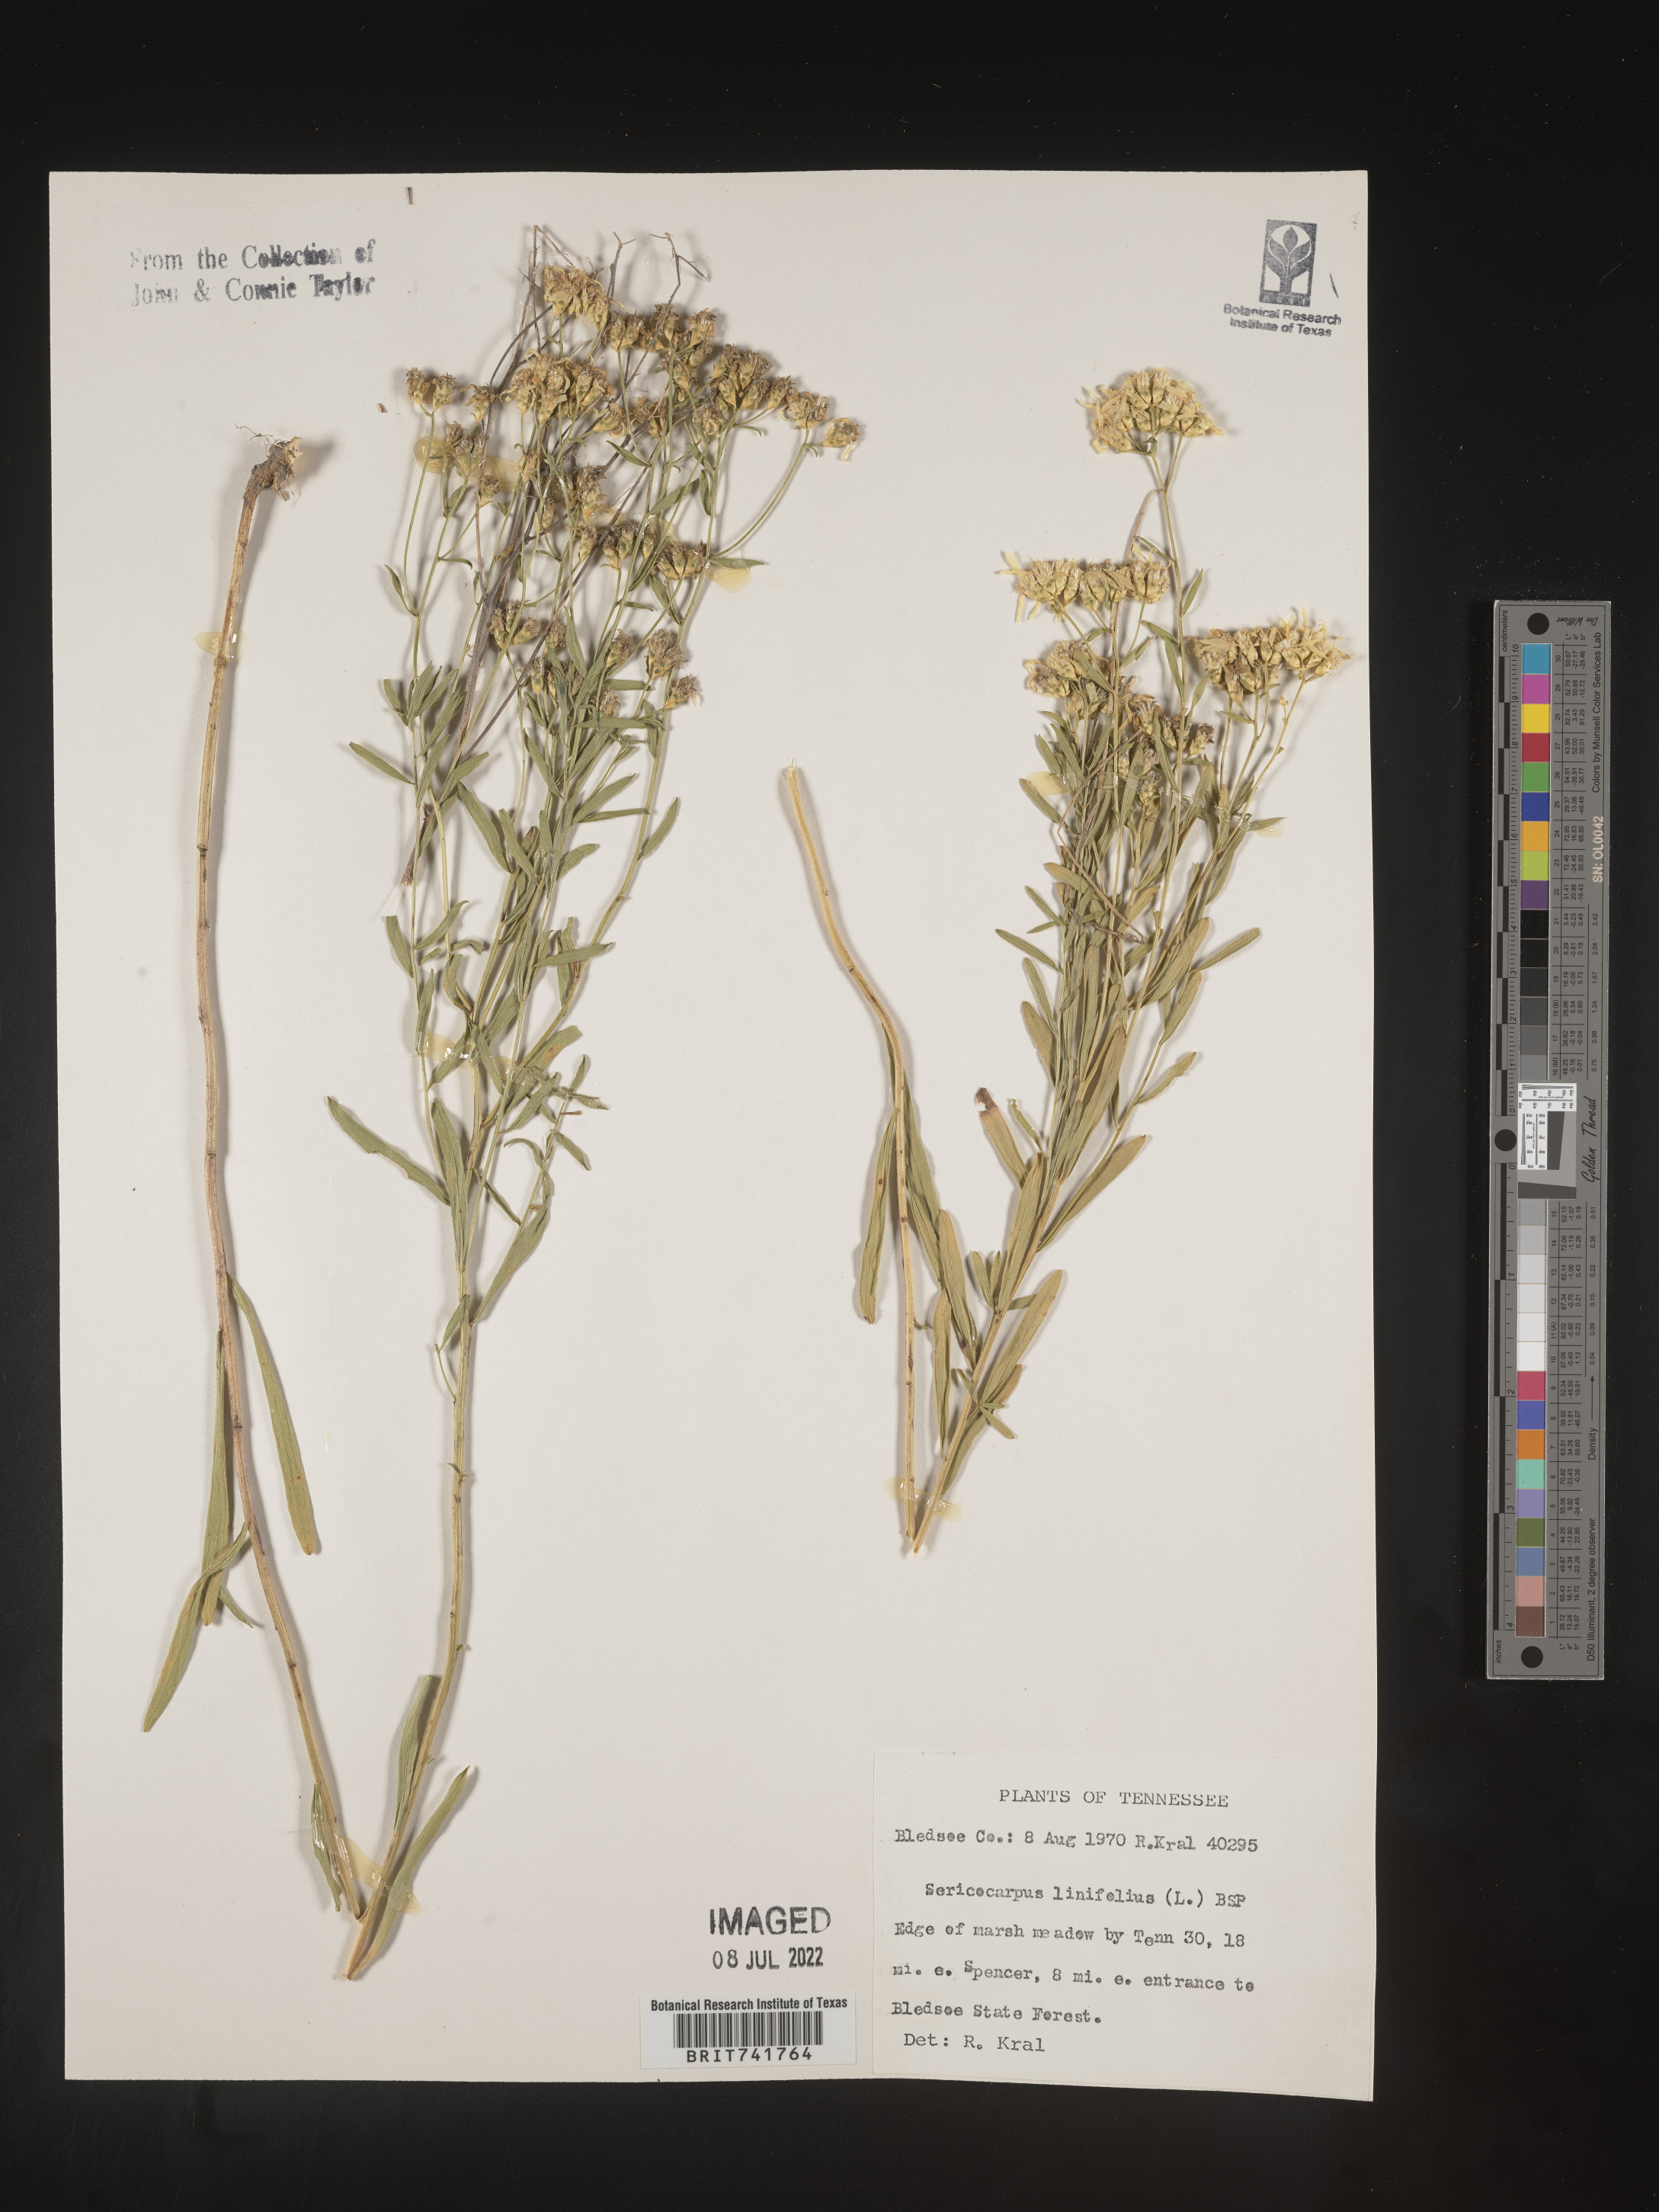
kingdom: Plantae
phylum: Tracheophyta
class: Magnoliopsida
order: Asterales
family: Asteraceae
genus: Sericocarpus
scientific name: Sericocarpus linifolius
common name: Narrow-leaf aster
